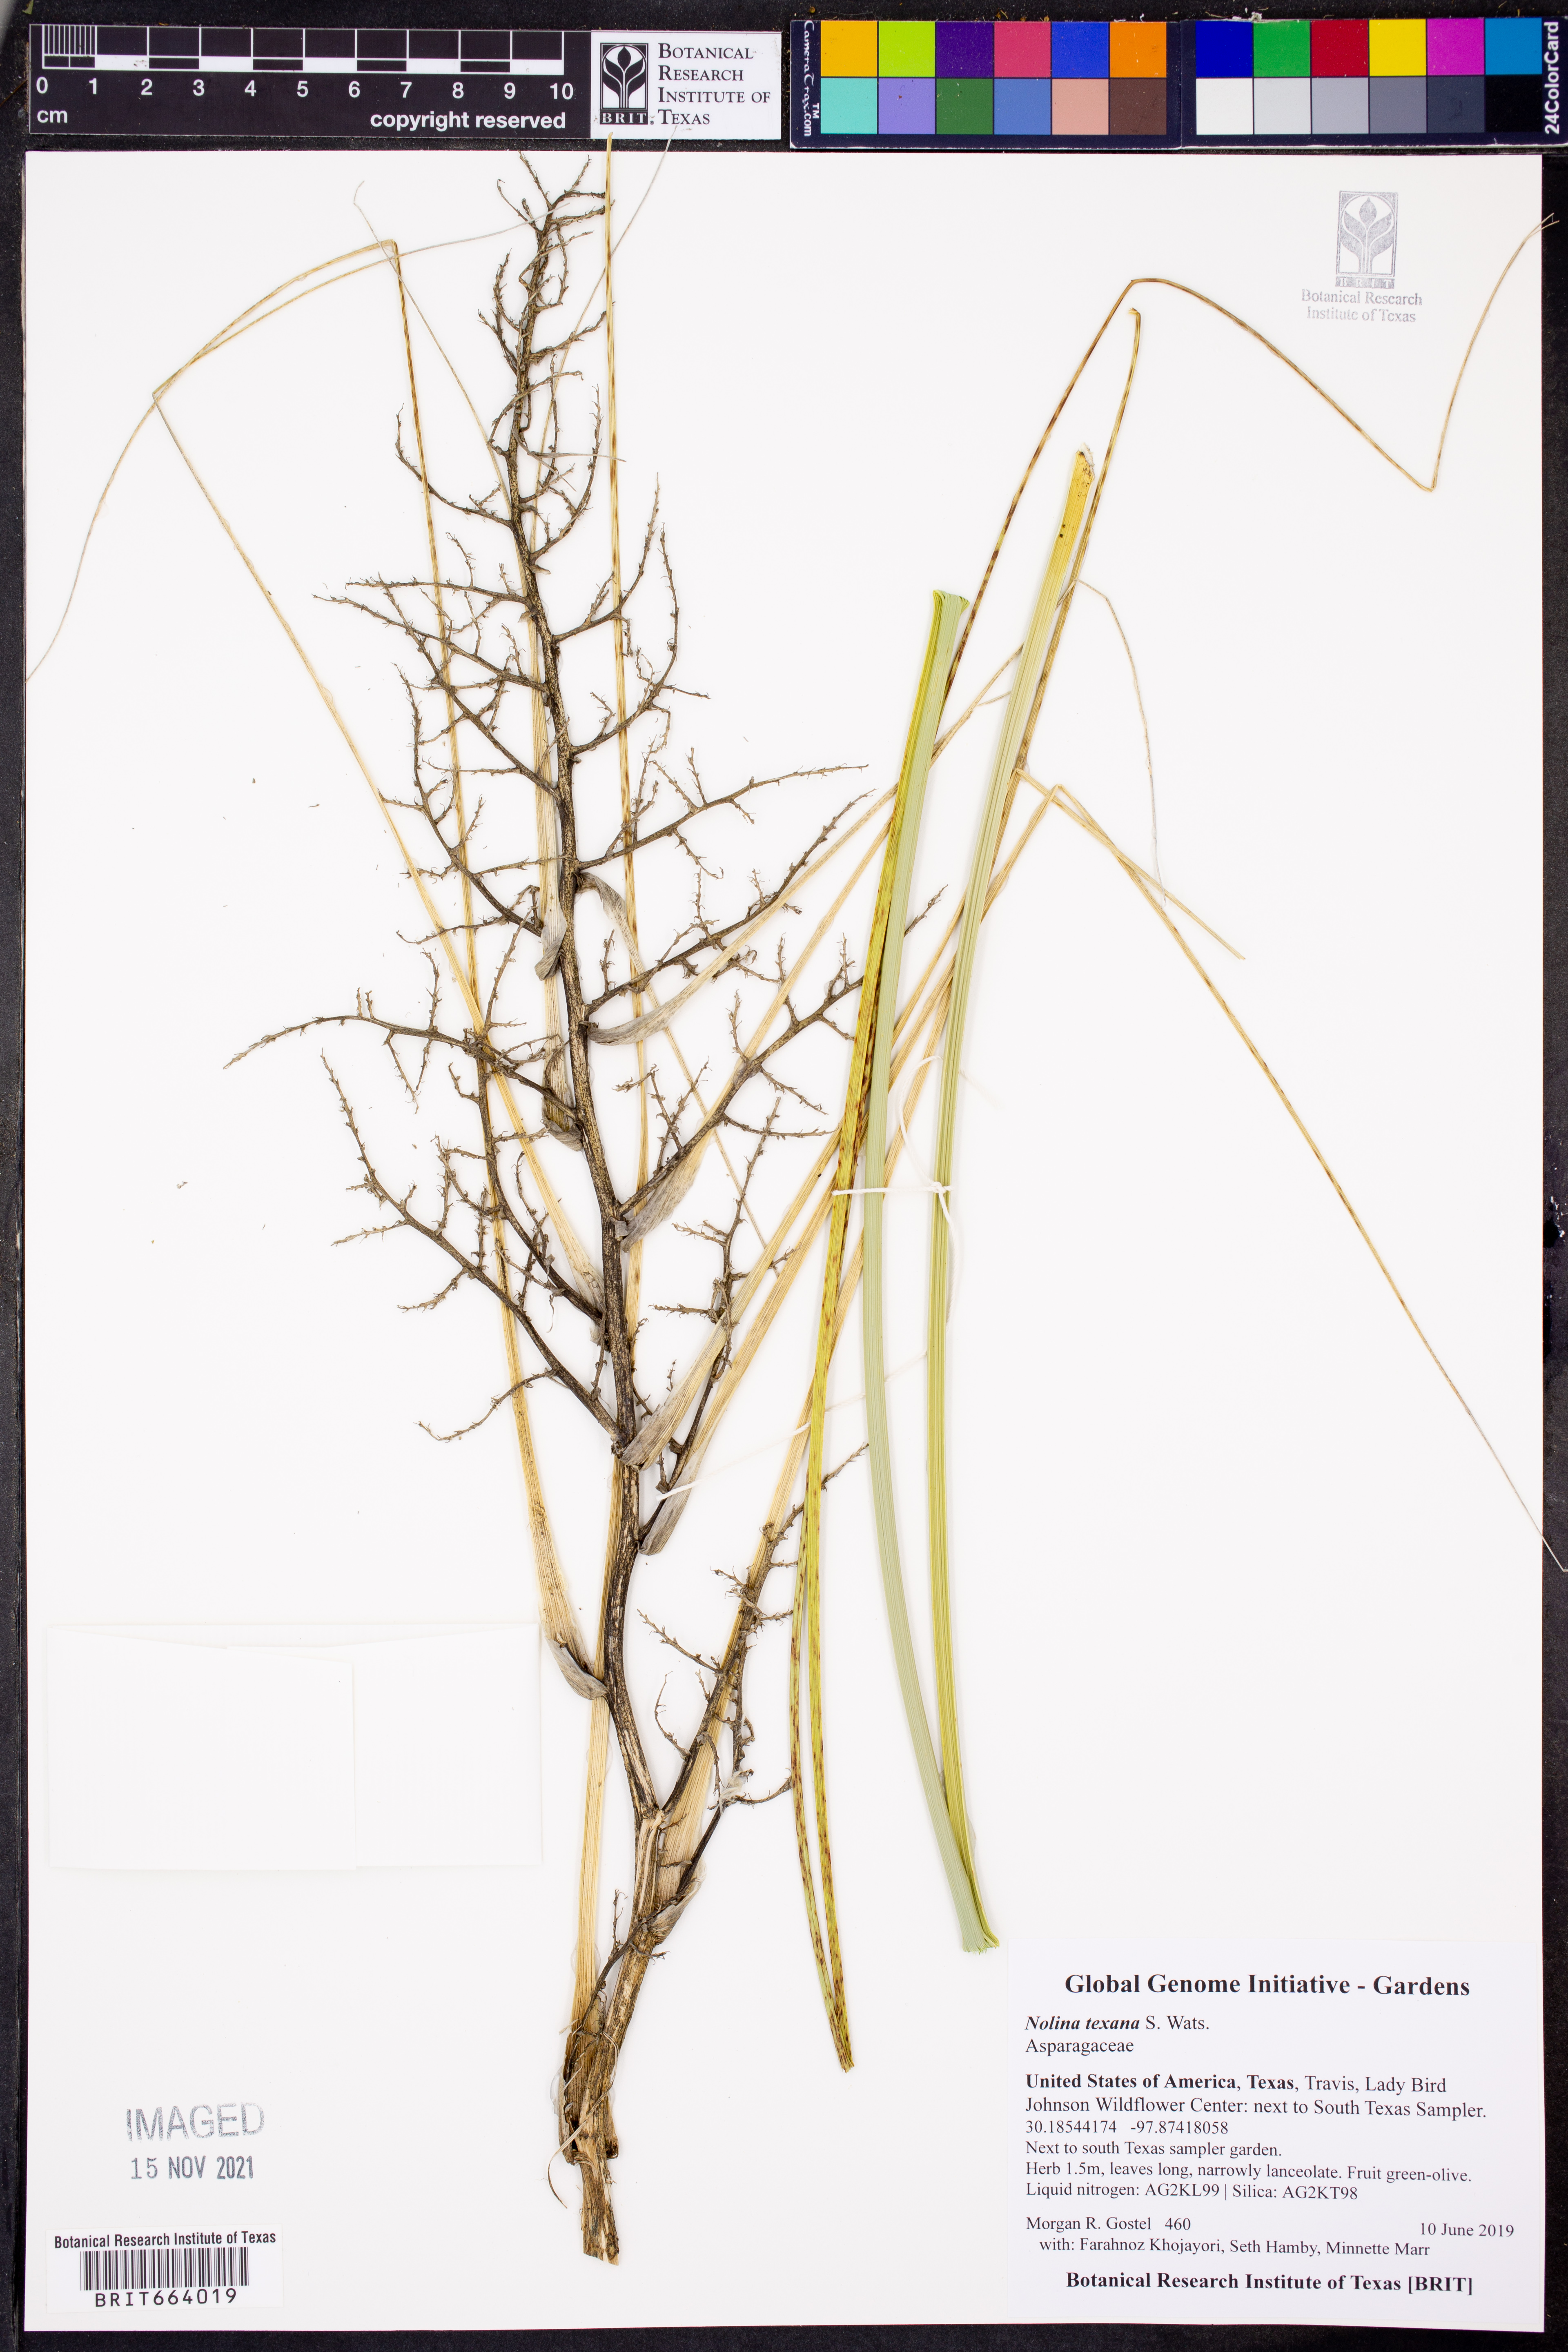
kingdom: Plantae
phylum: Tracheophyta
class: Liliopsida
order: Asparagales
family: Asparagaceae
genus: Nolina
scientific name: Nolina texana
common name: Texas sacahuiste
